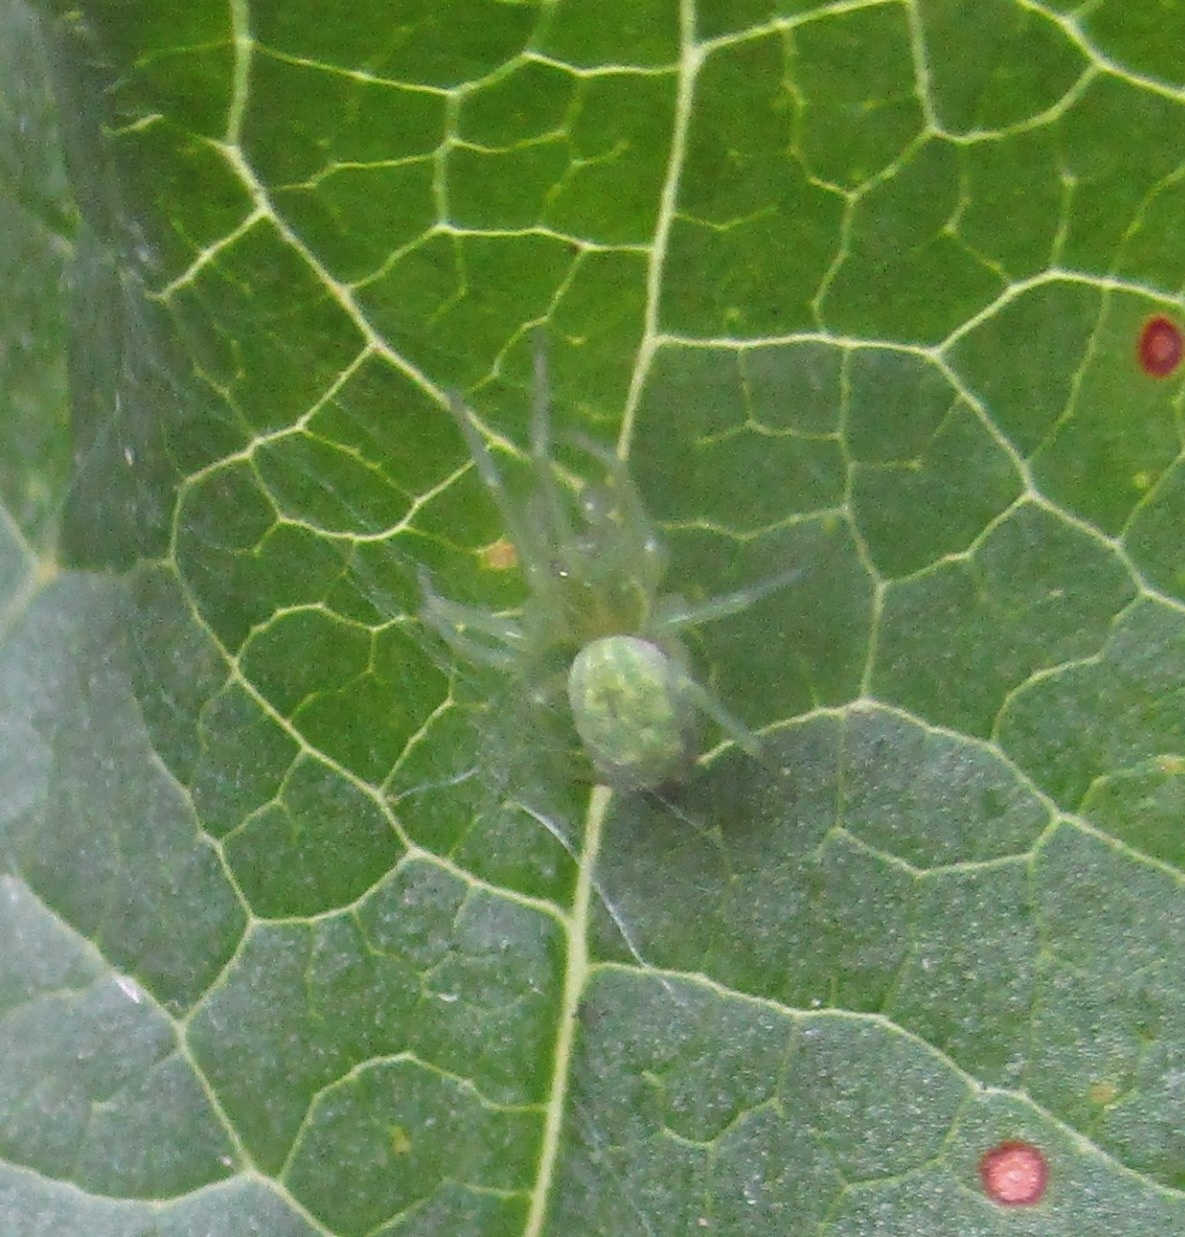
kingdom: Animalia
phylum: Arthropoda
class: Arachnida
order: Araneae
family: Dictynidae
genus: Nigma
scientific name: Nigma walckenaeri
